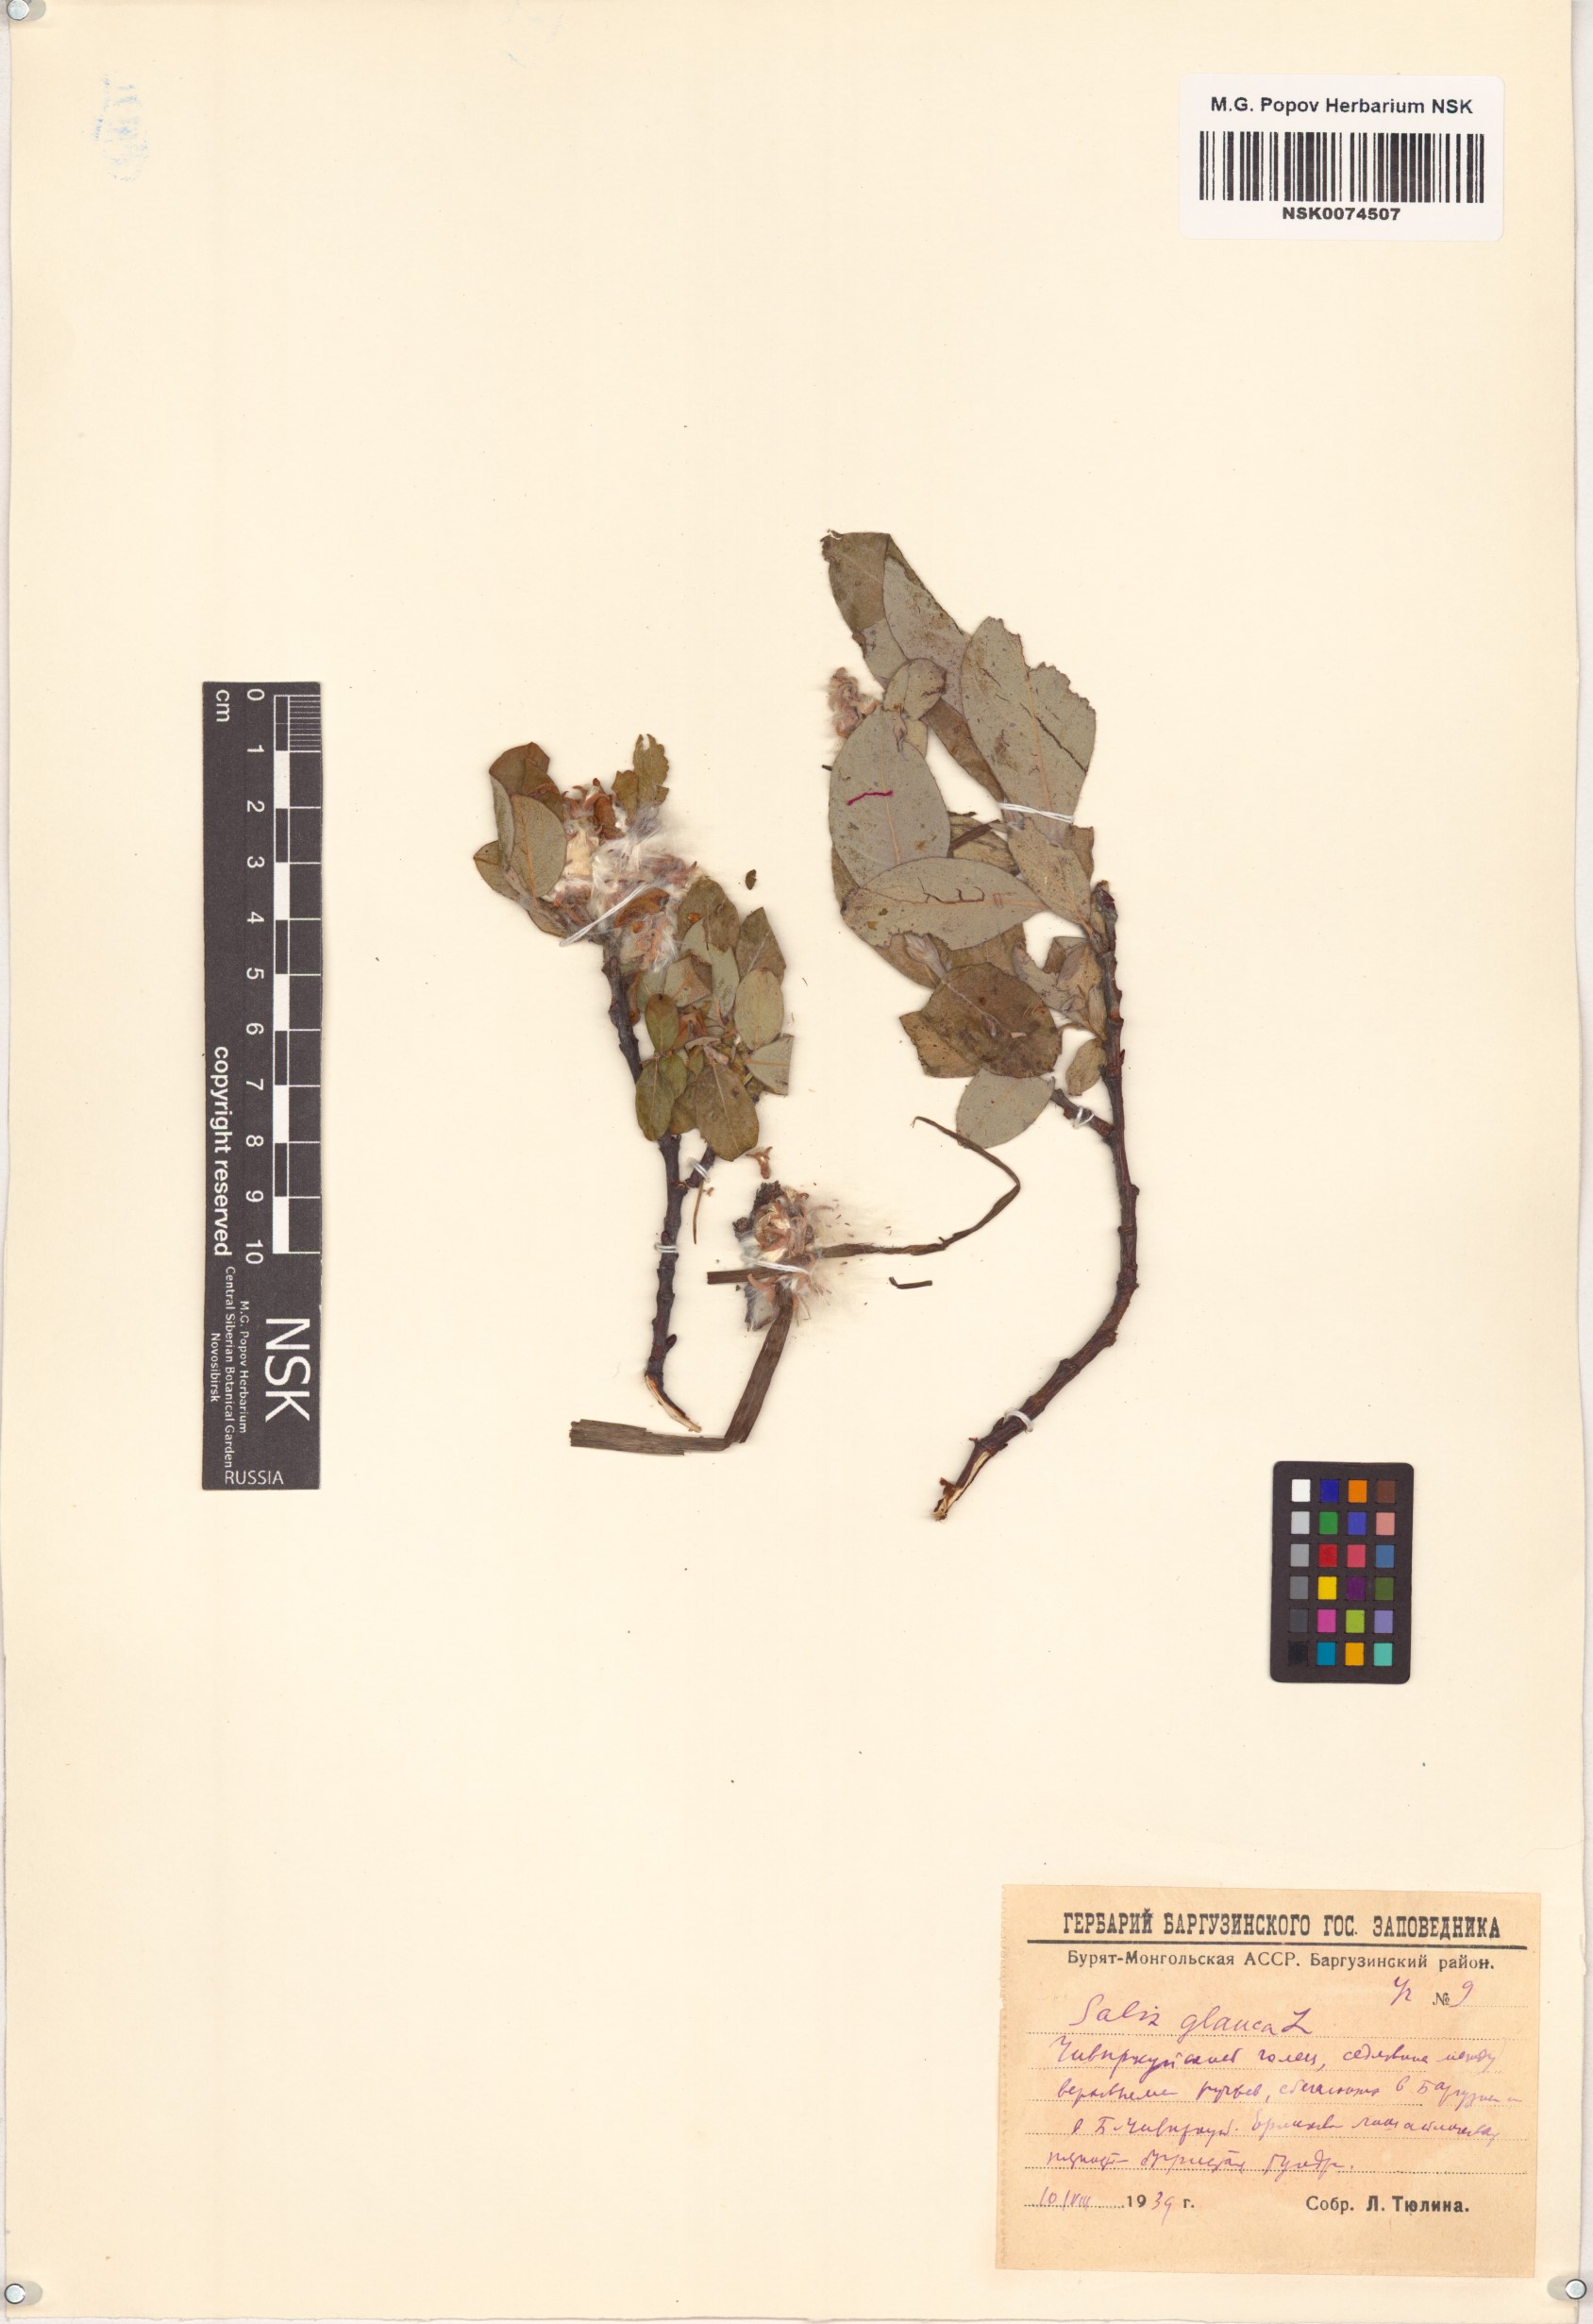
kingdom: Plantae
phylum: Tracheophyta
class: Magnoliopsida
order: Malpighiales
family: Salicaceae
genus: Salix
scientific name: Salix glauca
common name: Glaucous willow
